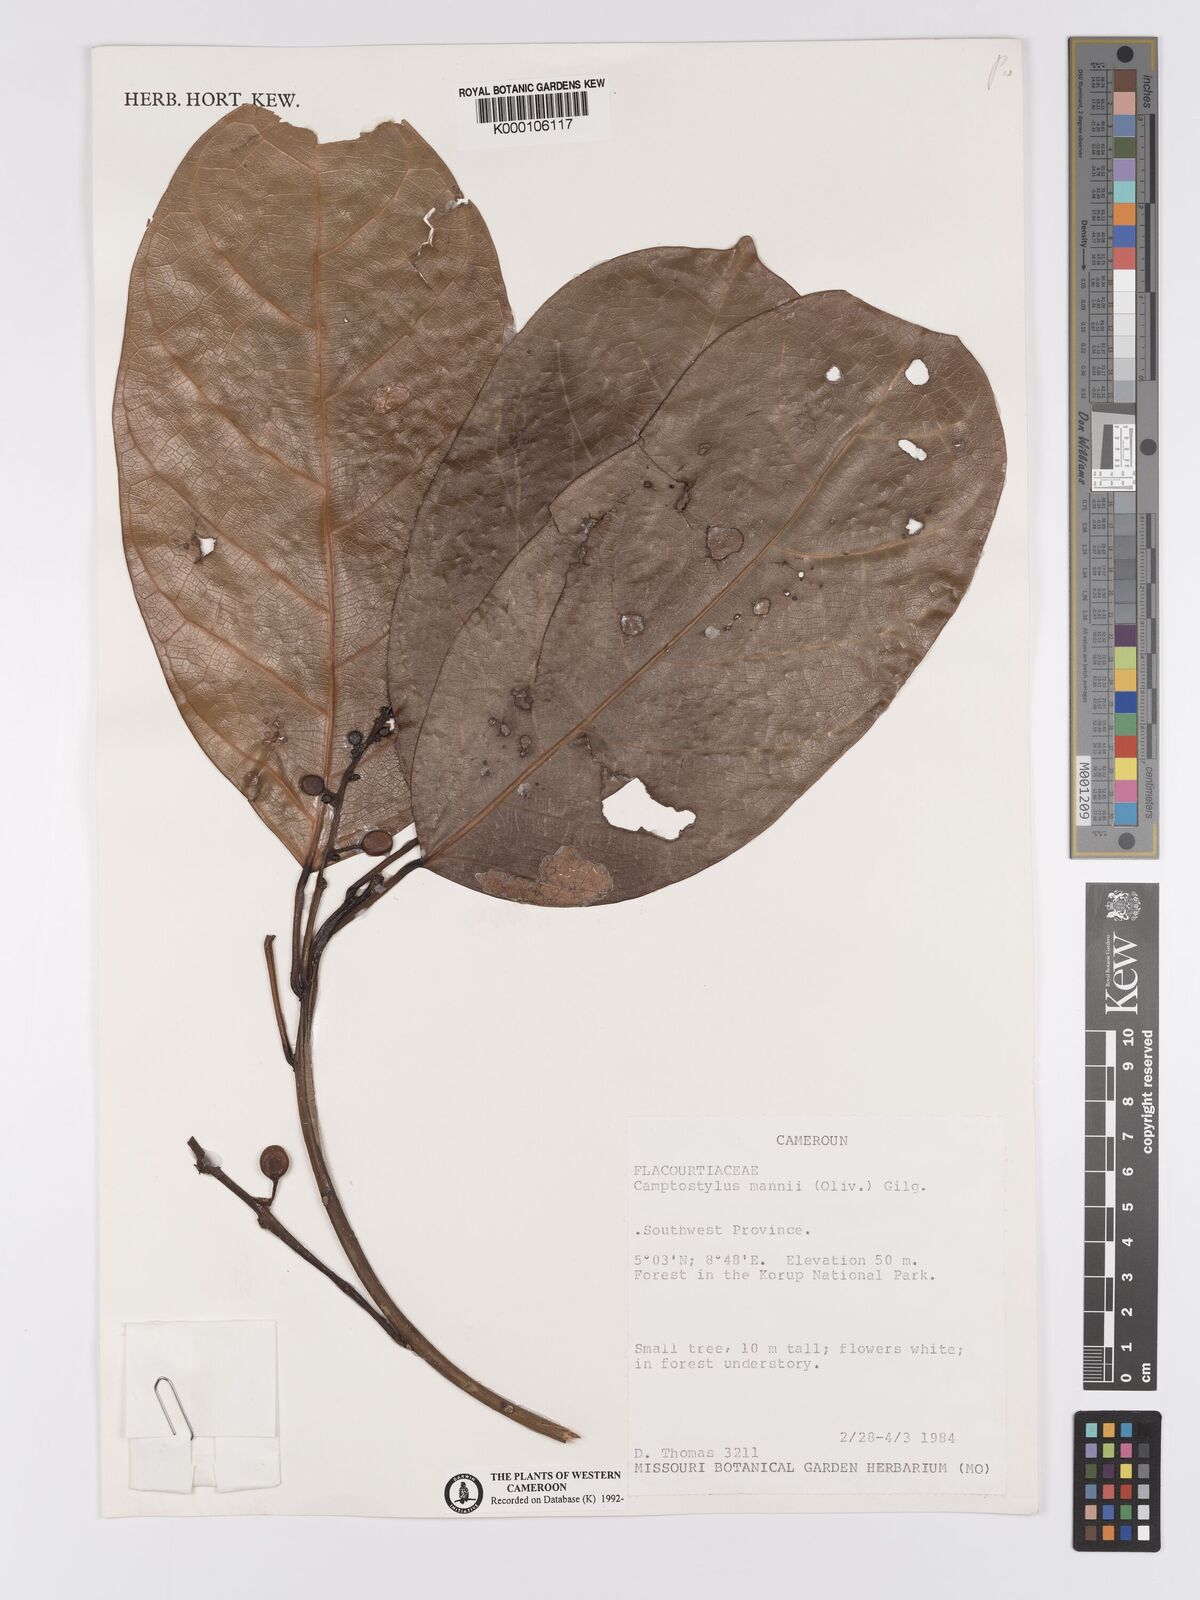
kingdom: Plantae
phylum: Tracheophyta
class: Magnoliopsida
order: Malpighiales
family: Achariaceae
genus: Camptostylus
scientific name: Camptostylus mannii
